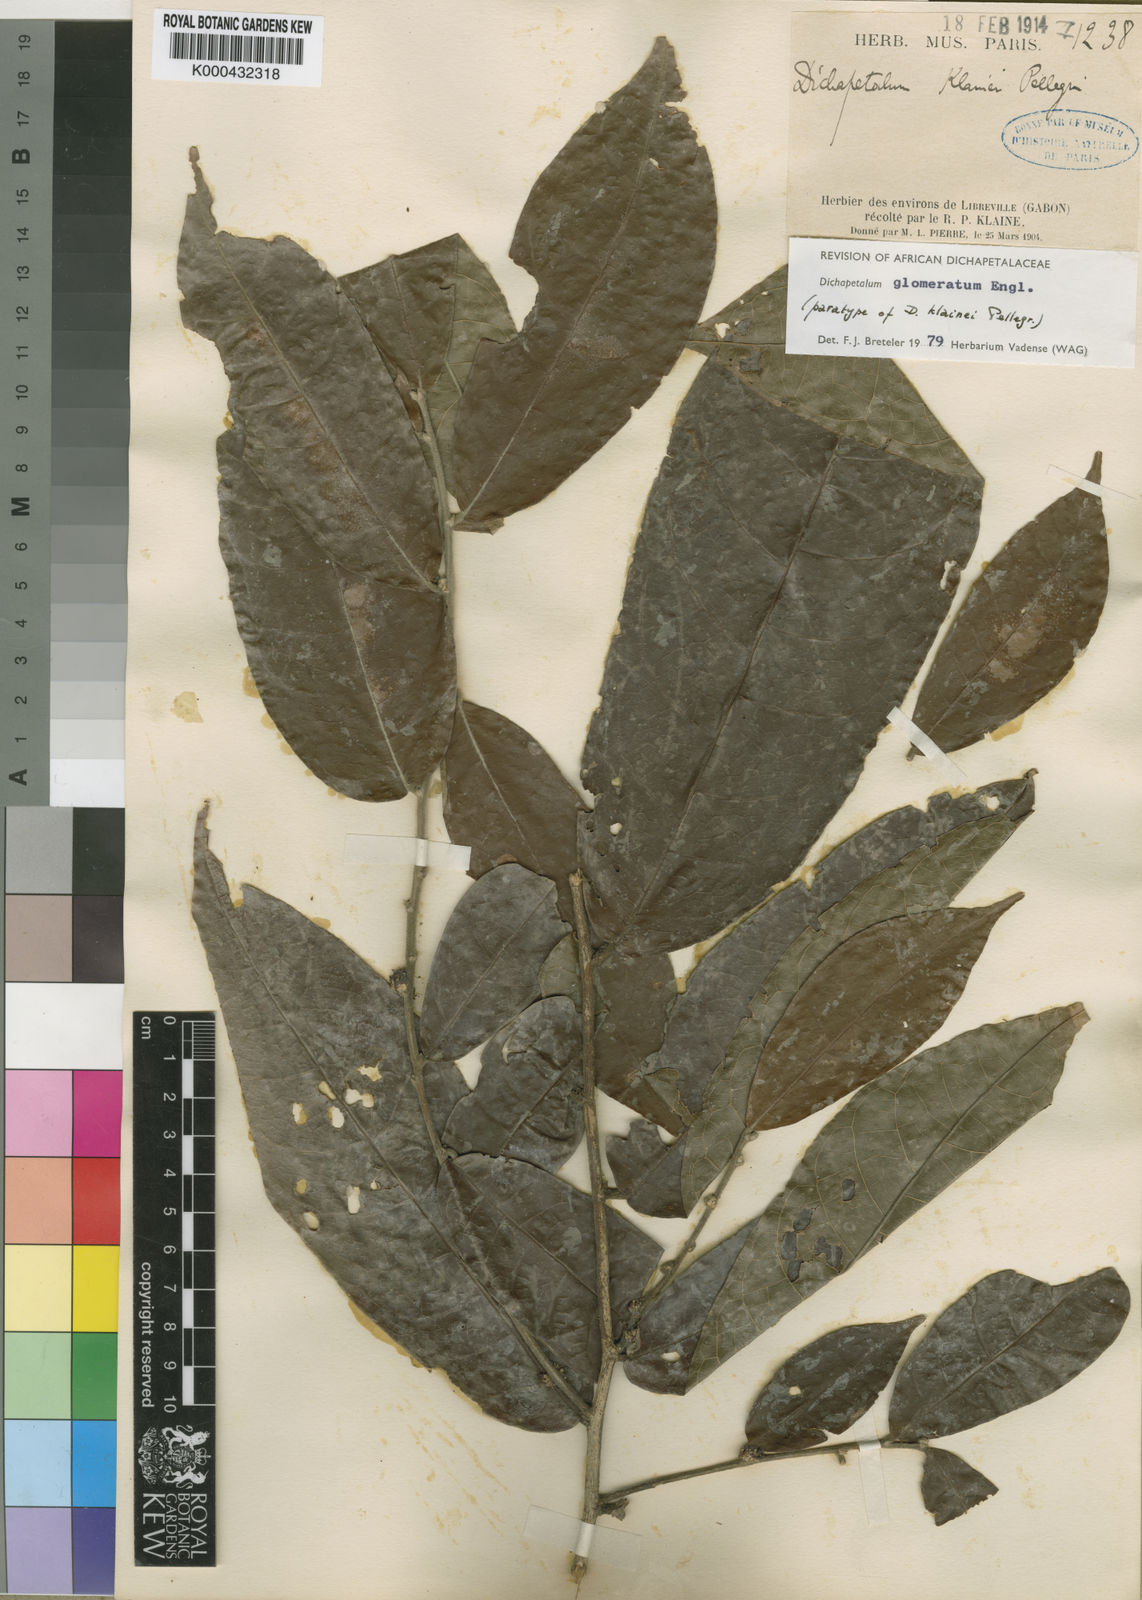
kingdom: Plantae
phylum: Tracheophyta
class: Magnoliopsida
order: Malpighiales
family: Dichapetalaceae
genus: Dichapetalum
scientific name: Dichapetalum glomeratum
